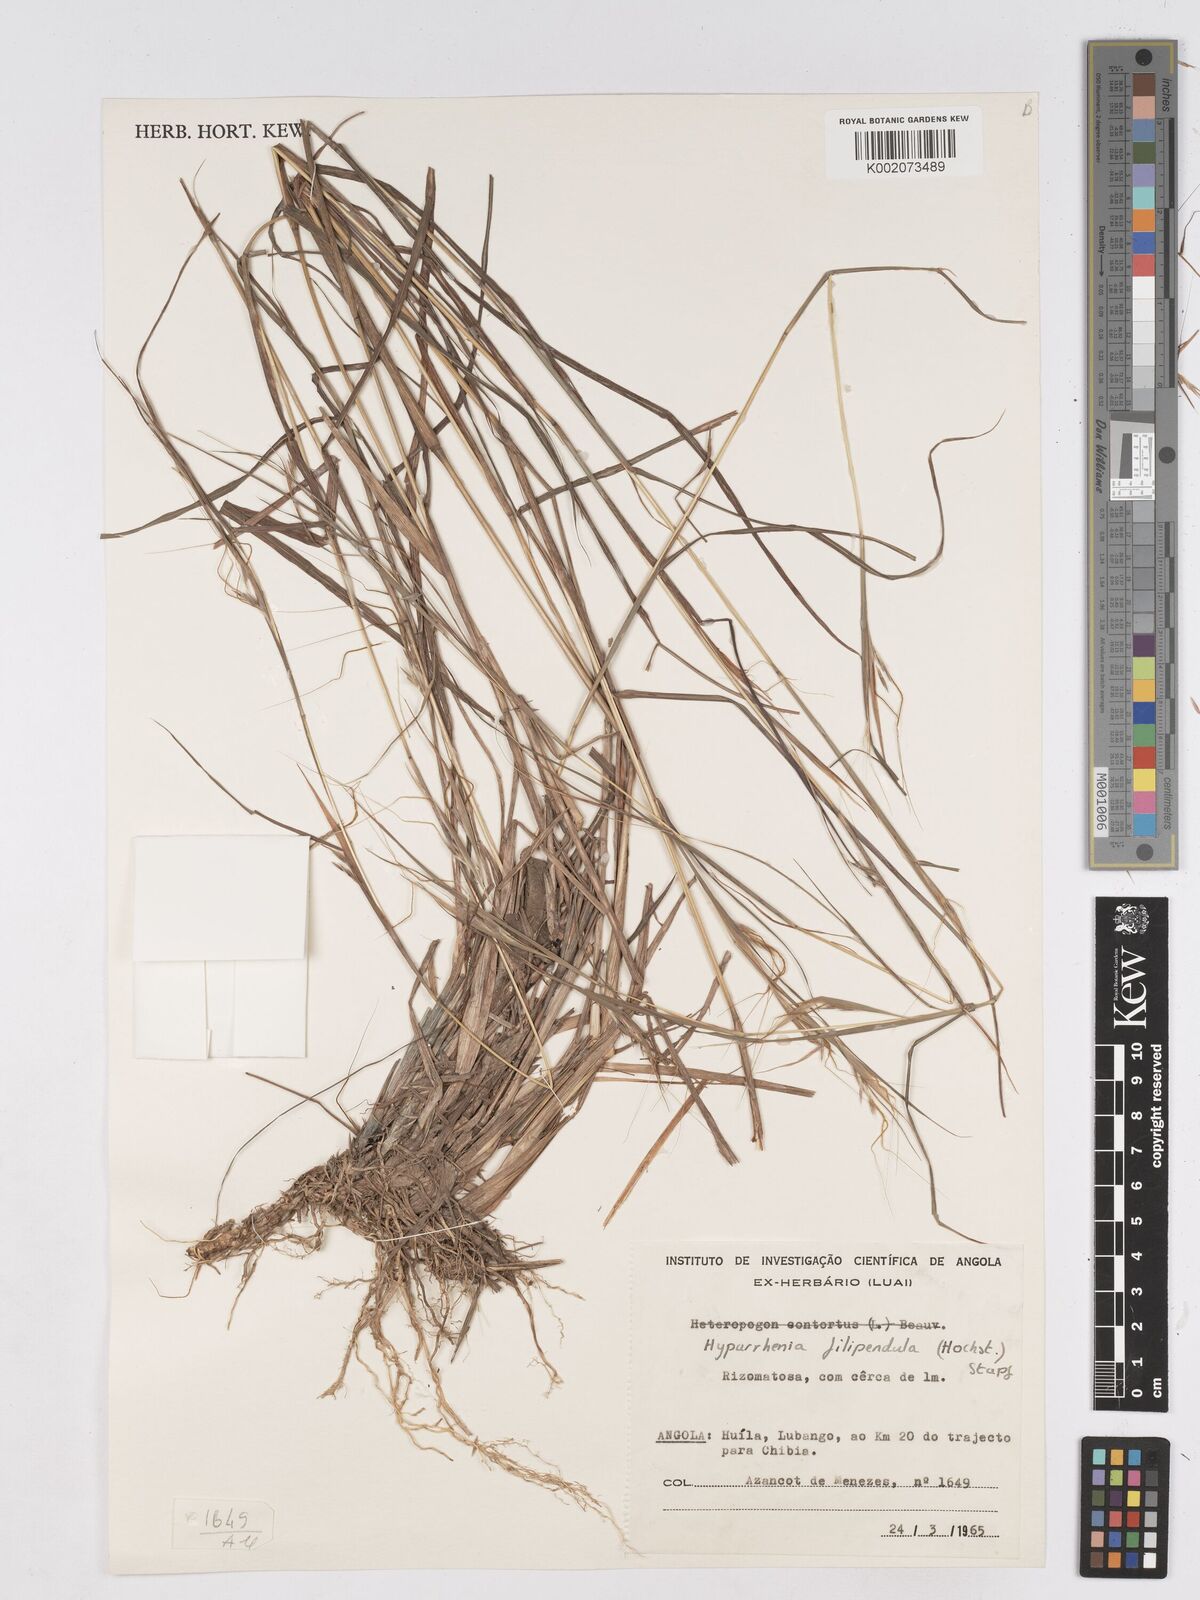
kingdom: Plantae
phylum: Tracheophyta
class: Liliopsida
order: Poales
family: Poaceae
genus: Hyparrhenia
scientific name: Hyparrhenia filipendula
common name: Tambookie grass
